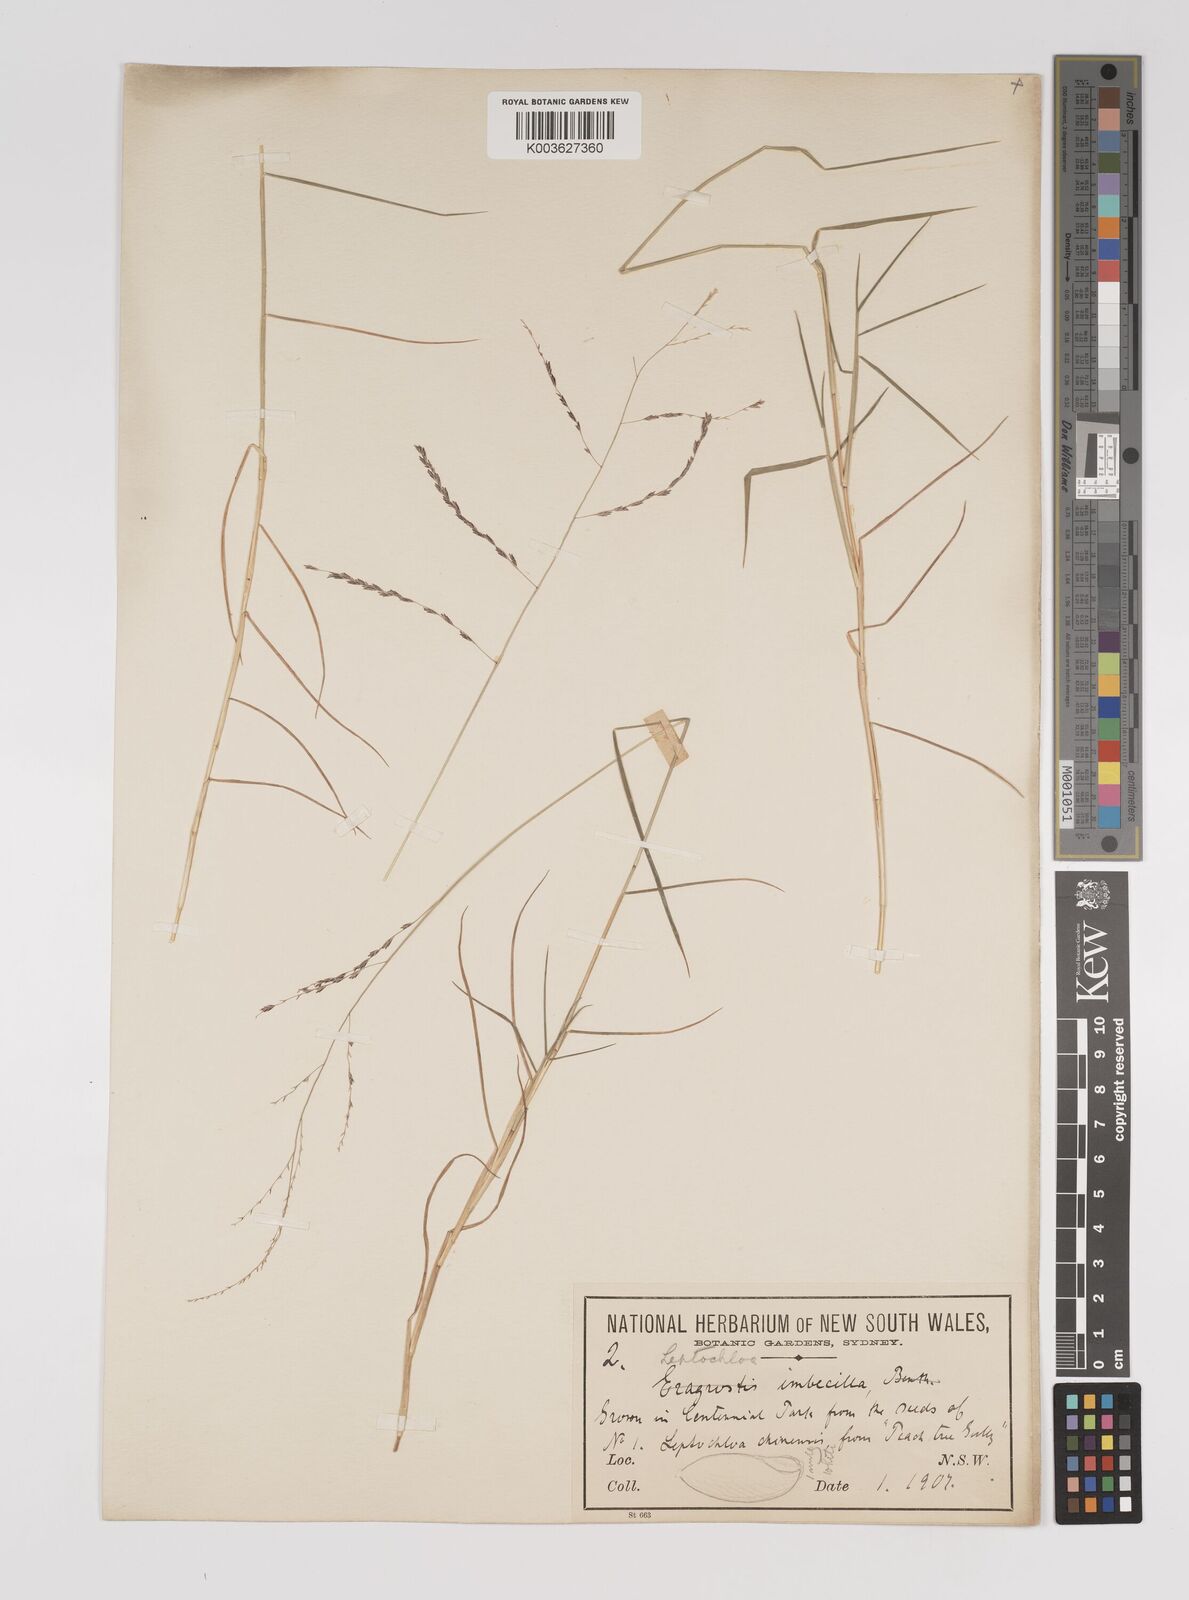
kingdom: Plantae
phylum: Tracheophyta
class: Liliopsida
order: Poales
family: Poaceae
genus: Leptochloa
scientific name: Leptochloa decipiens
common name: Australian sprangletop
